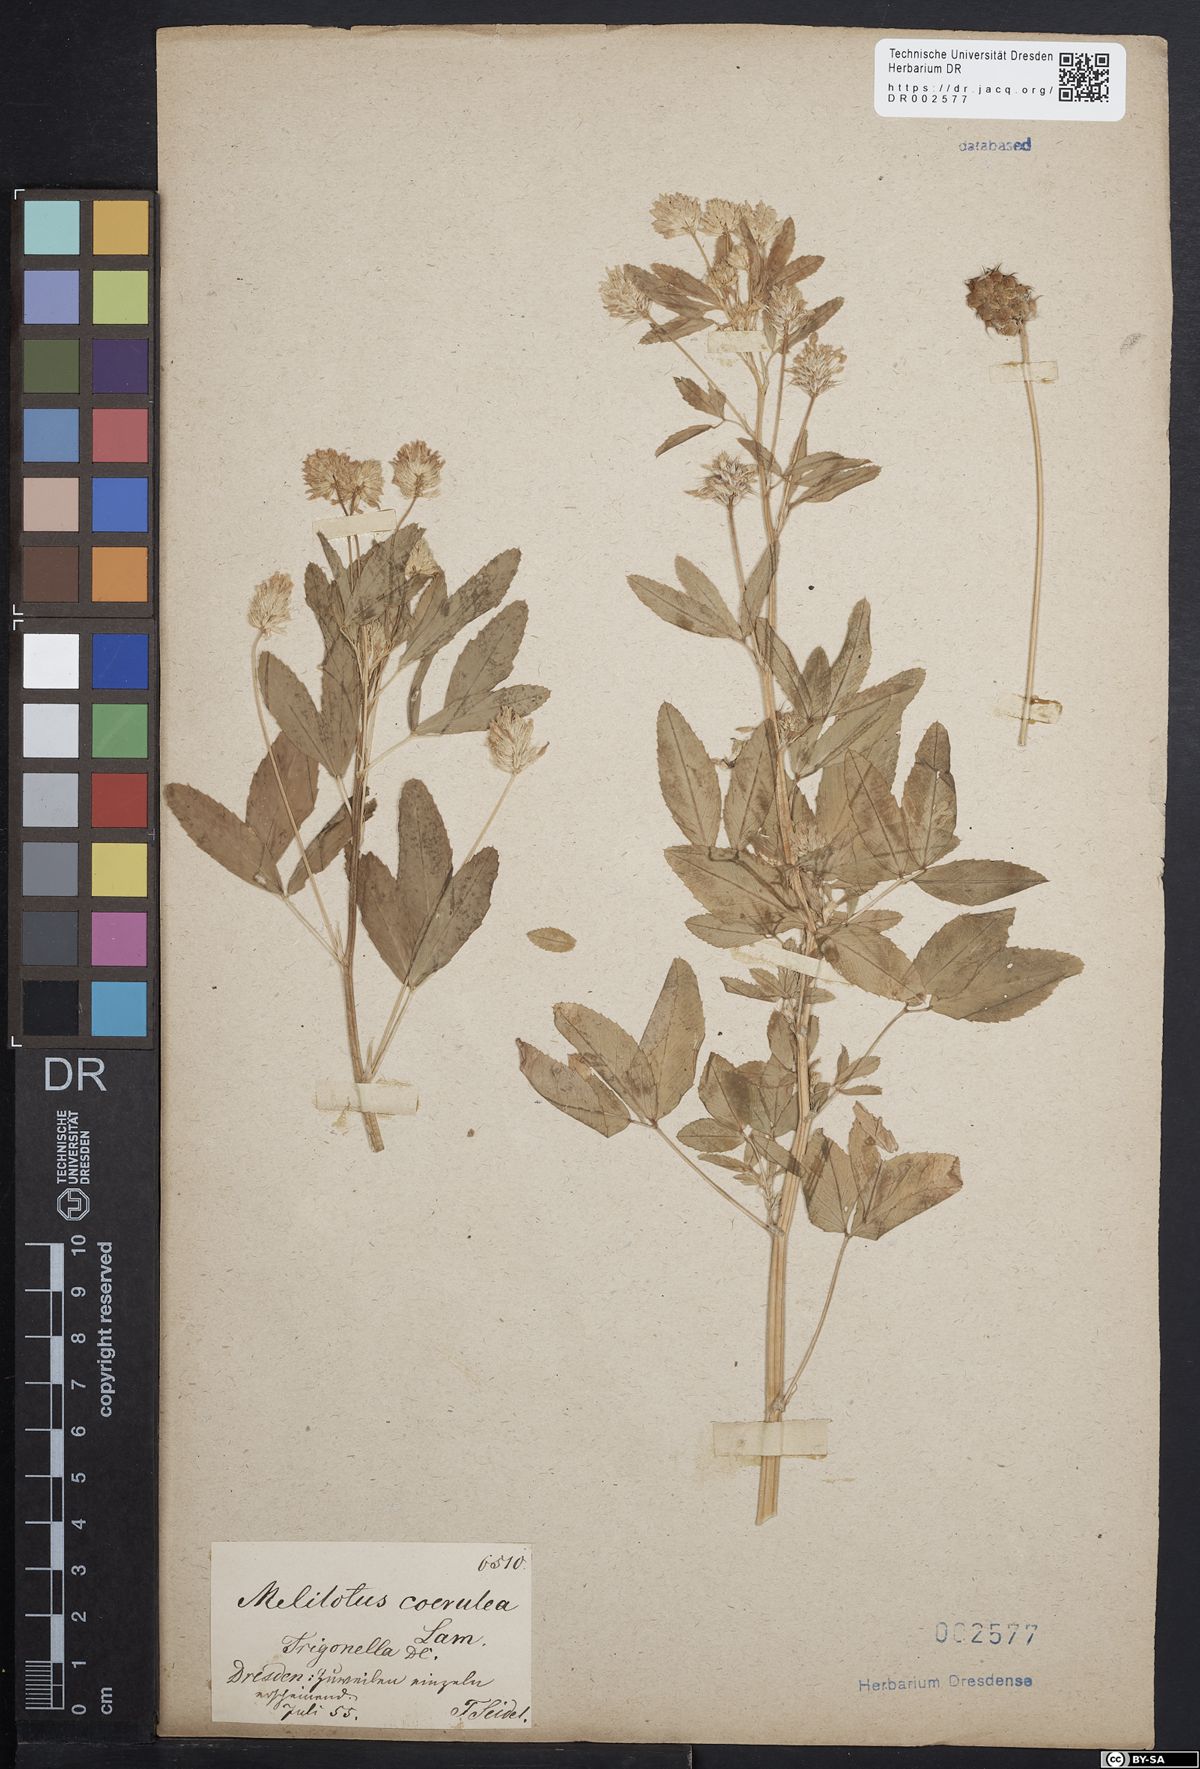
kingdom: Plantae
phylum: Tracheophyta
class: Magnoliopsida
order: Fabales
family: Fabaceae
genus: Trigonella
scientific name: Trigonella caerulea
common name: Blue fenugreek
